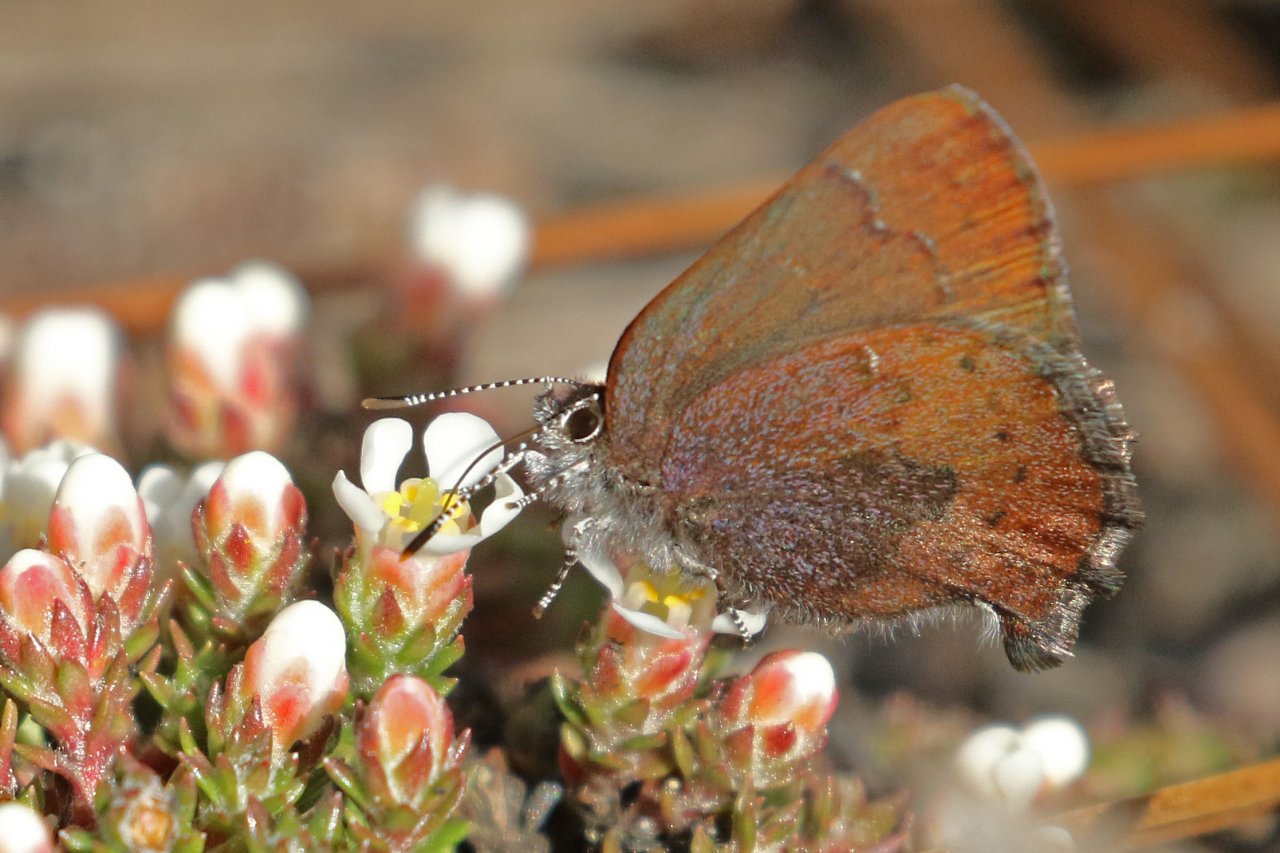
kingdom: Animalia
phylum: Arthropoda
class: Insecta
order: Lepidoptera
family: Lycaenidae
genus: Incisalia
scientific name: Incisalia irioides
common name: Brown Elfin
